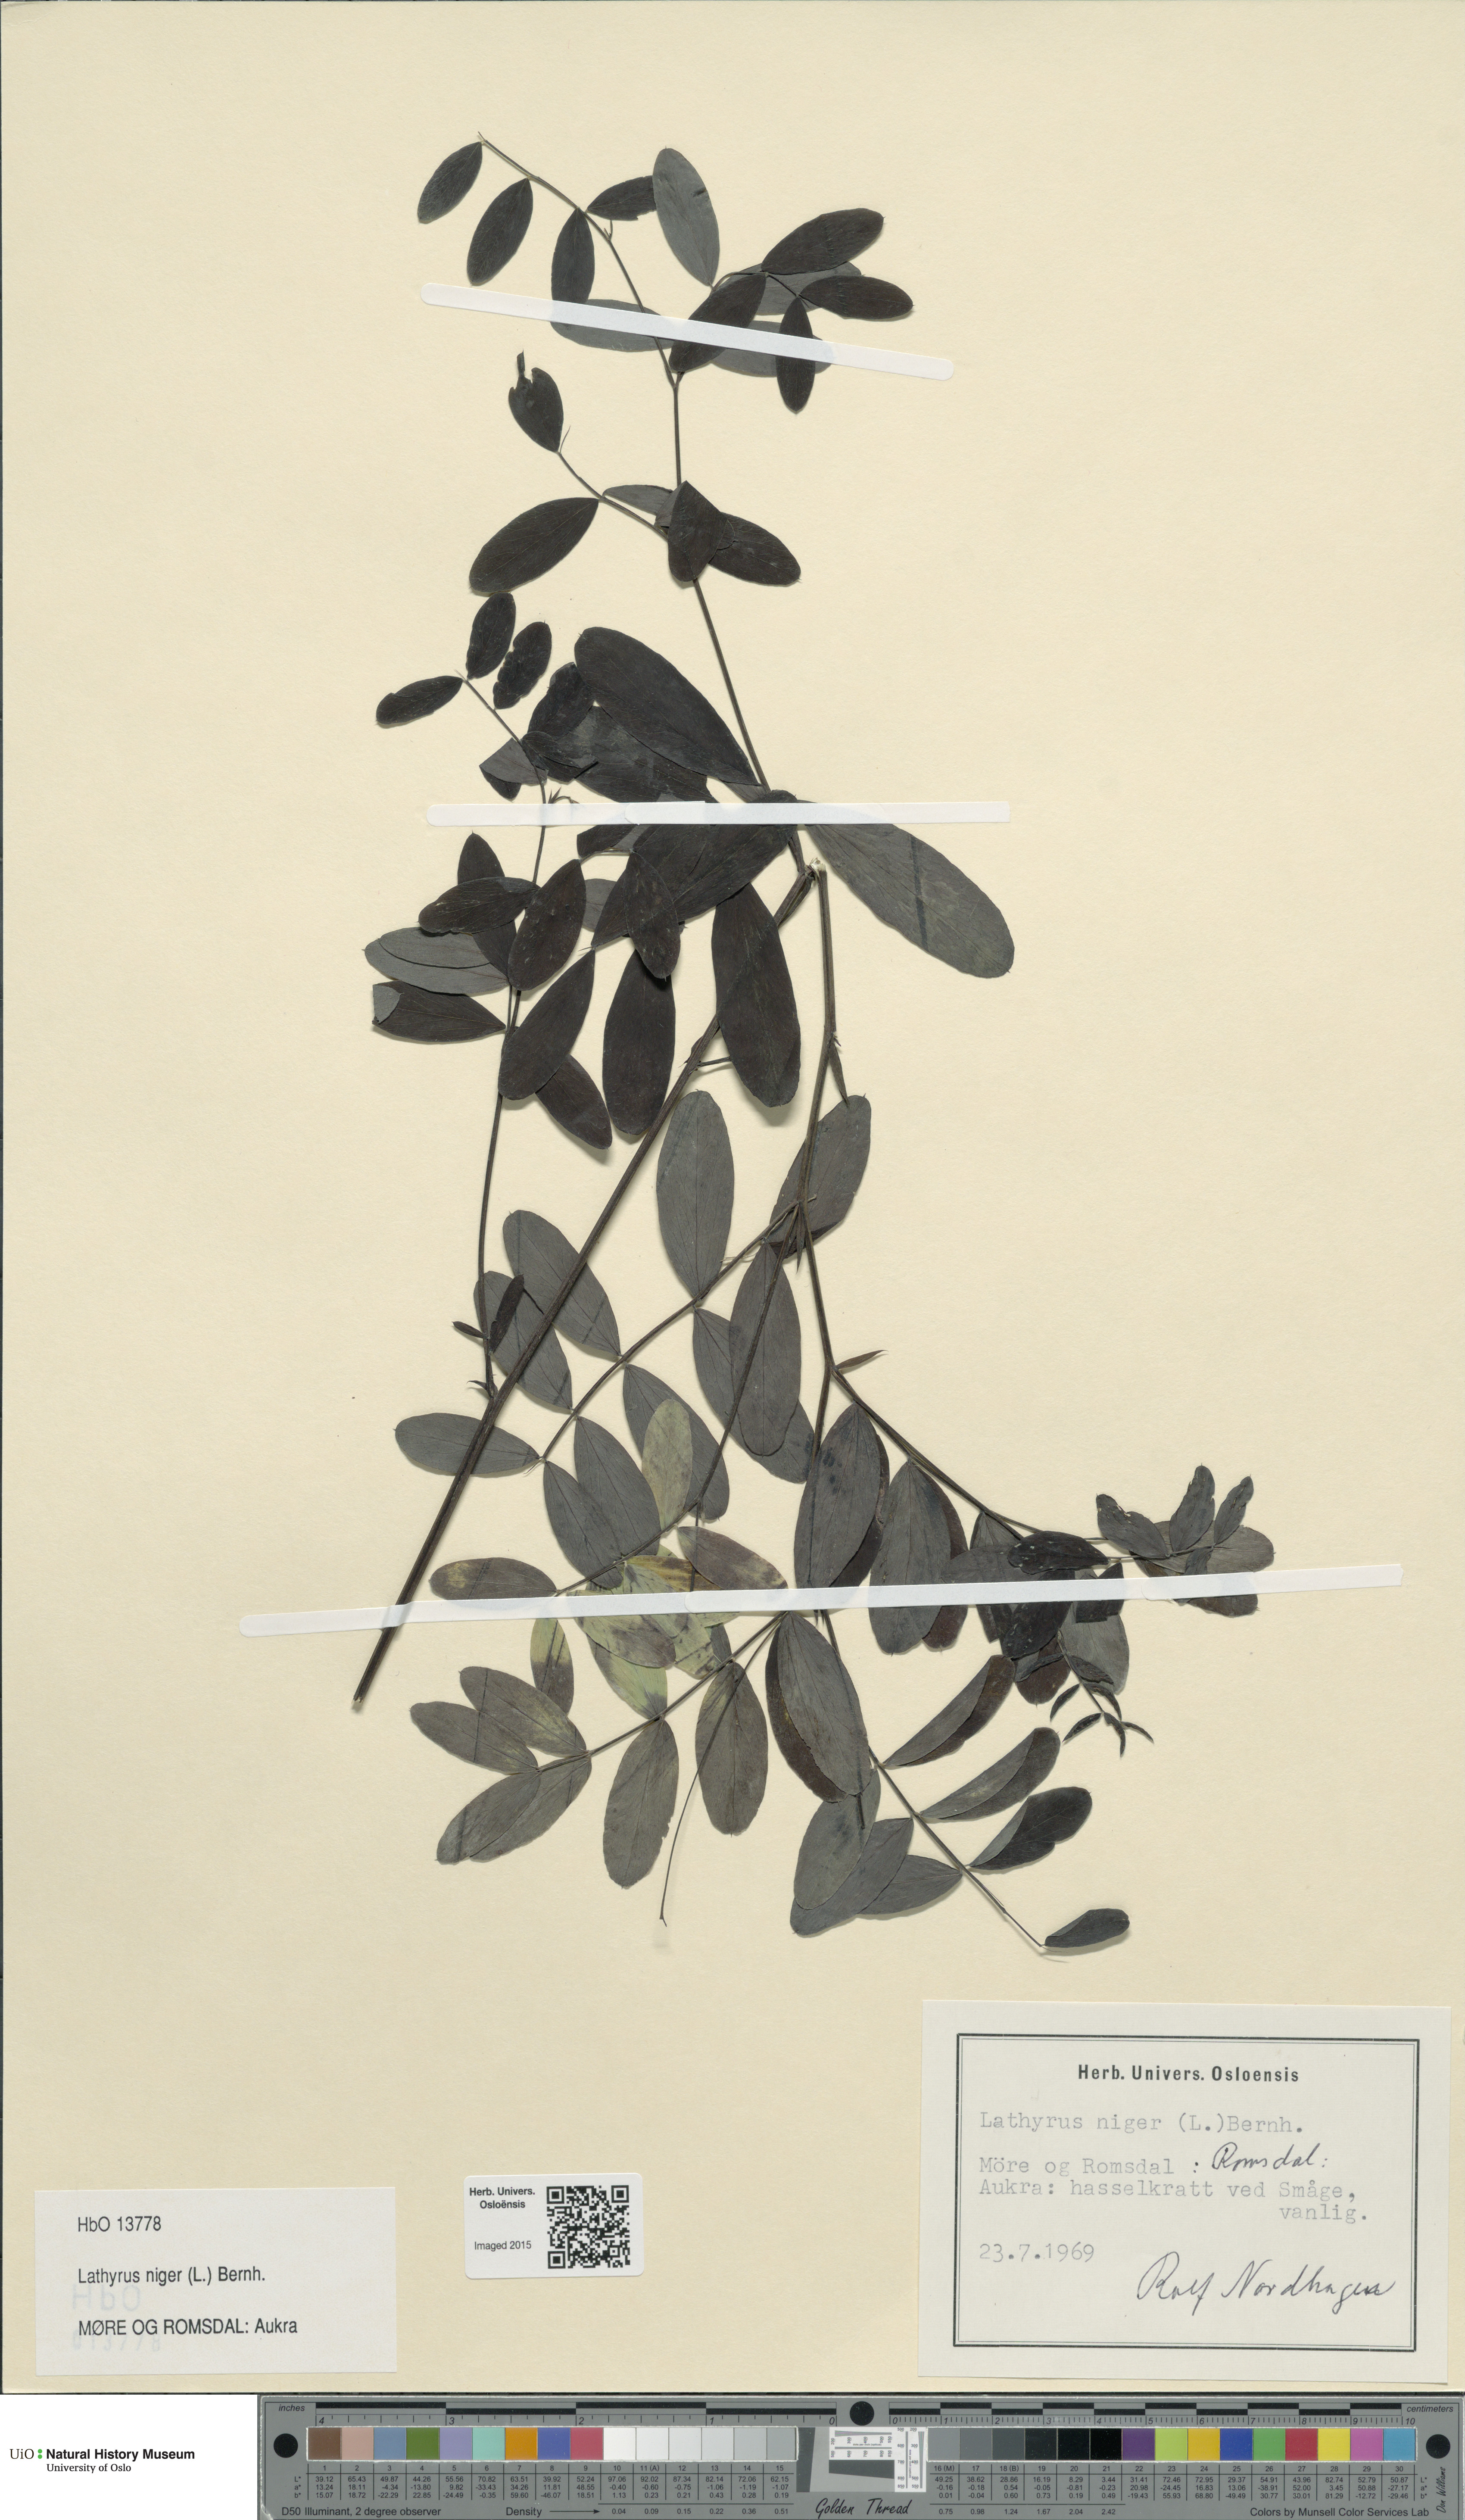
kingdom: Plantae
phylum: Tracheophyta
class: Magnoliopsida
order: Fabales
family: Fabaceae
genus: Lathyrus
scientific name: Lathyrus niger
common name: Black pea
